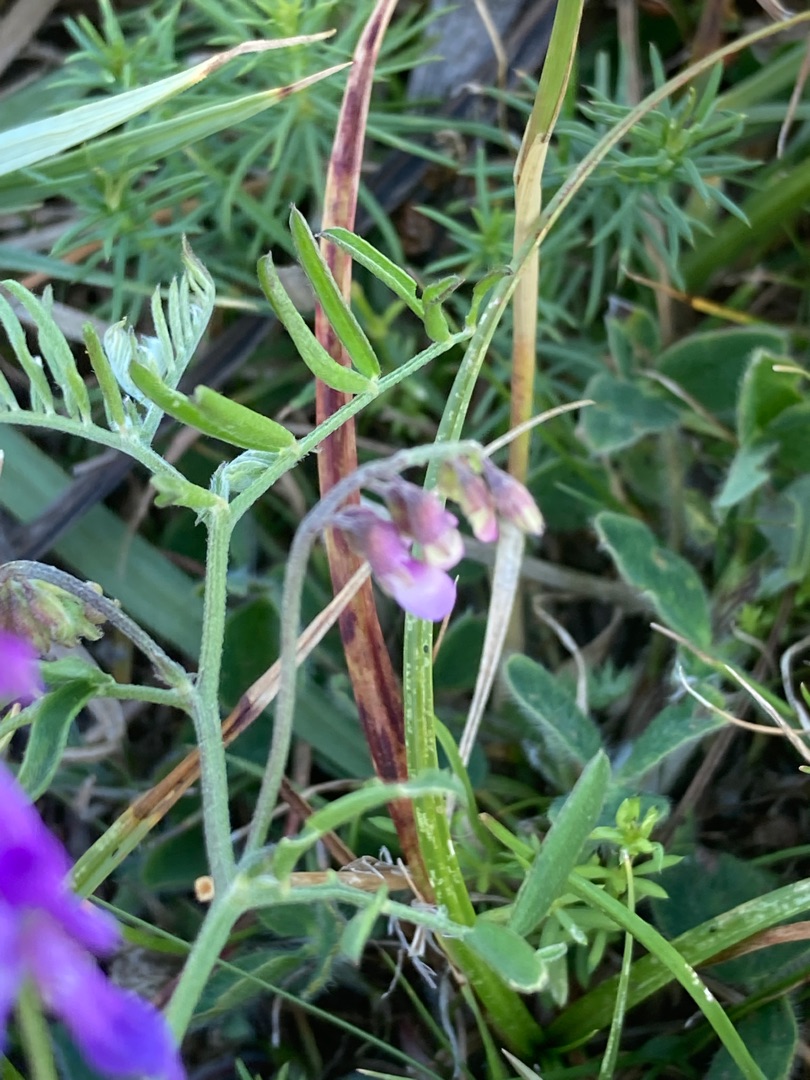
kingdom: Plantae
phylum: Tracheophyta
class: Magnoliopsida
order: Fabales
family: Fabaceae
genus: Vicia
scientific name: Vicia cracca
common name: Muse-vikke
